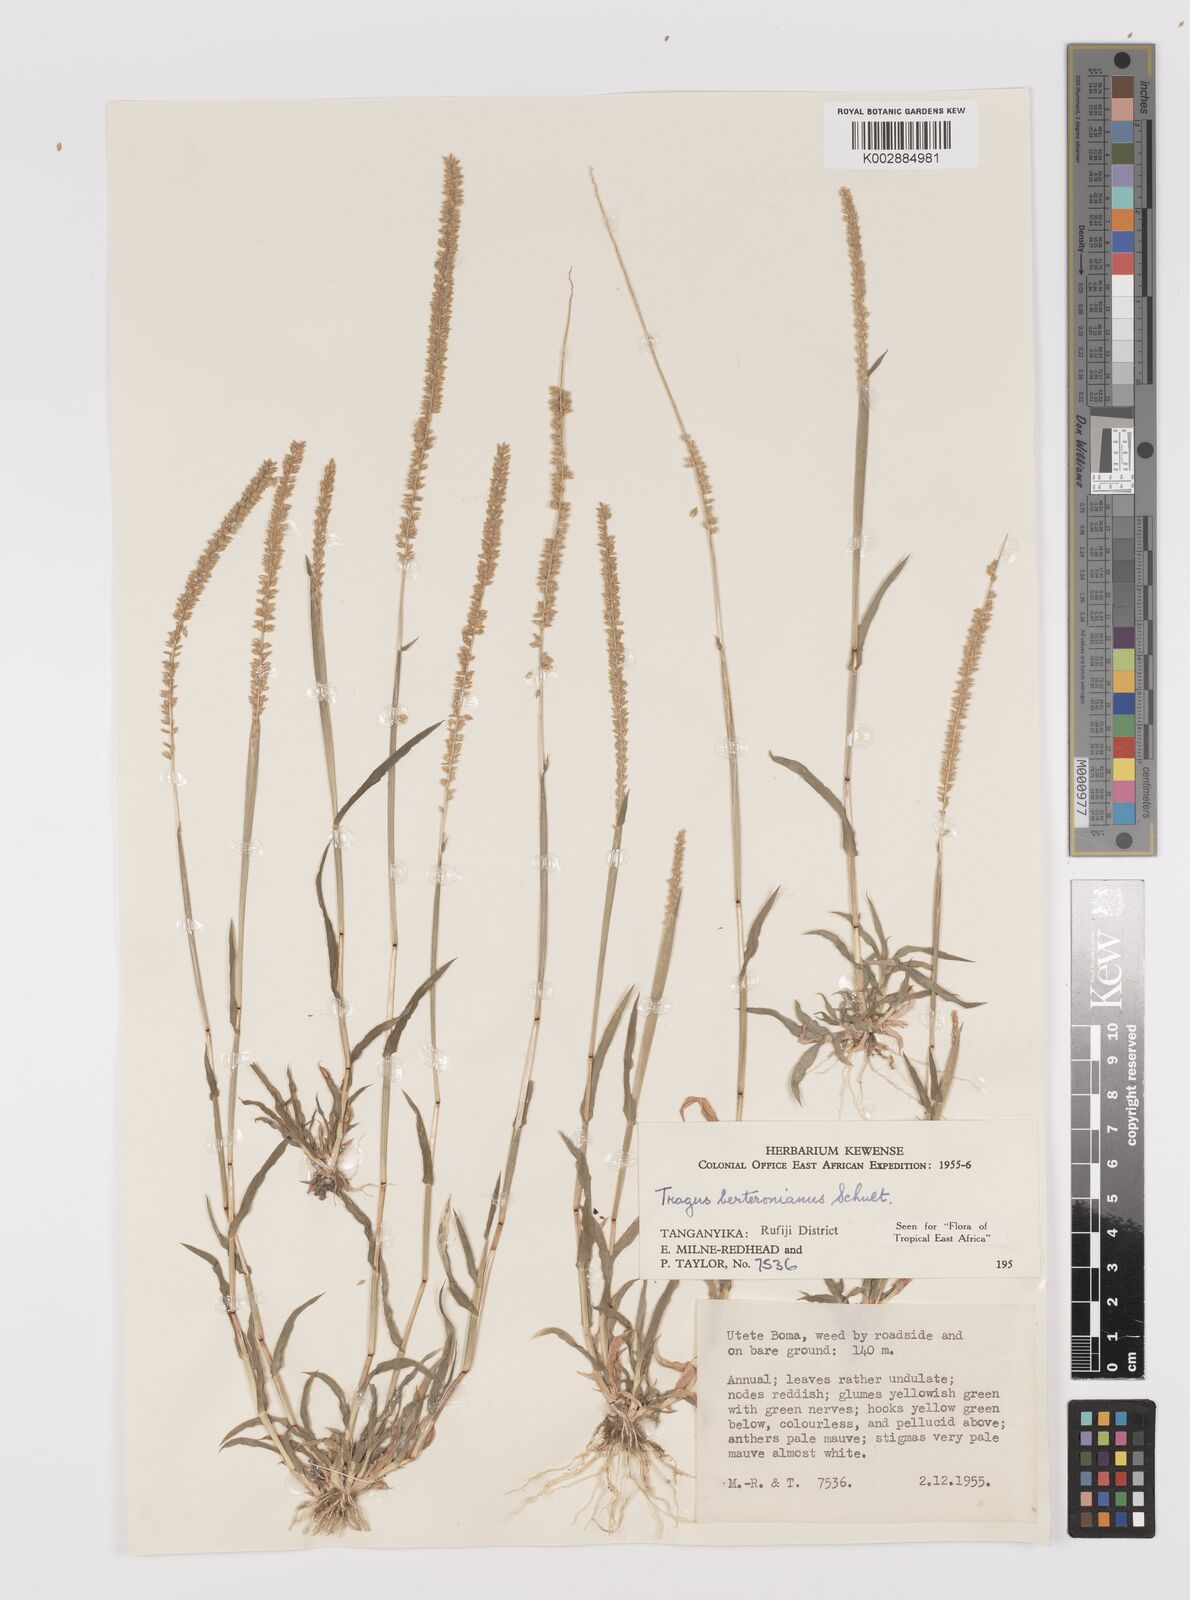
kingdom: Plantae
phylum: Tracheophyta
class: Liliopsida
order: Poales
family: Poaceae
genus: Tragus
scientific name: Tragus berteronianus
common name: African bur-grass
